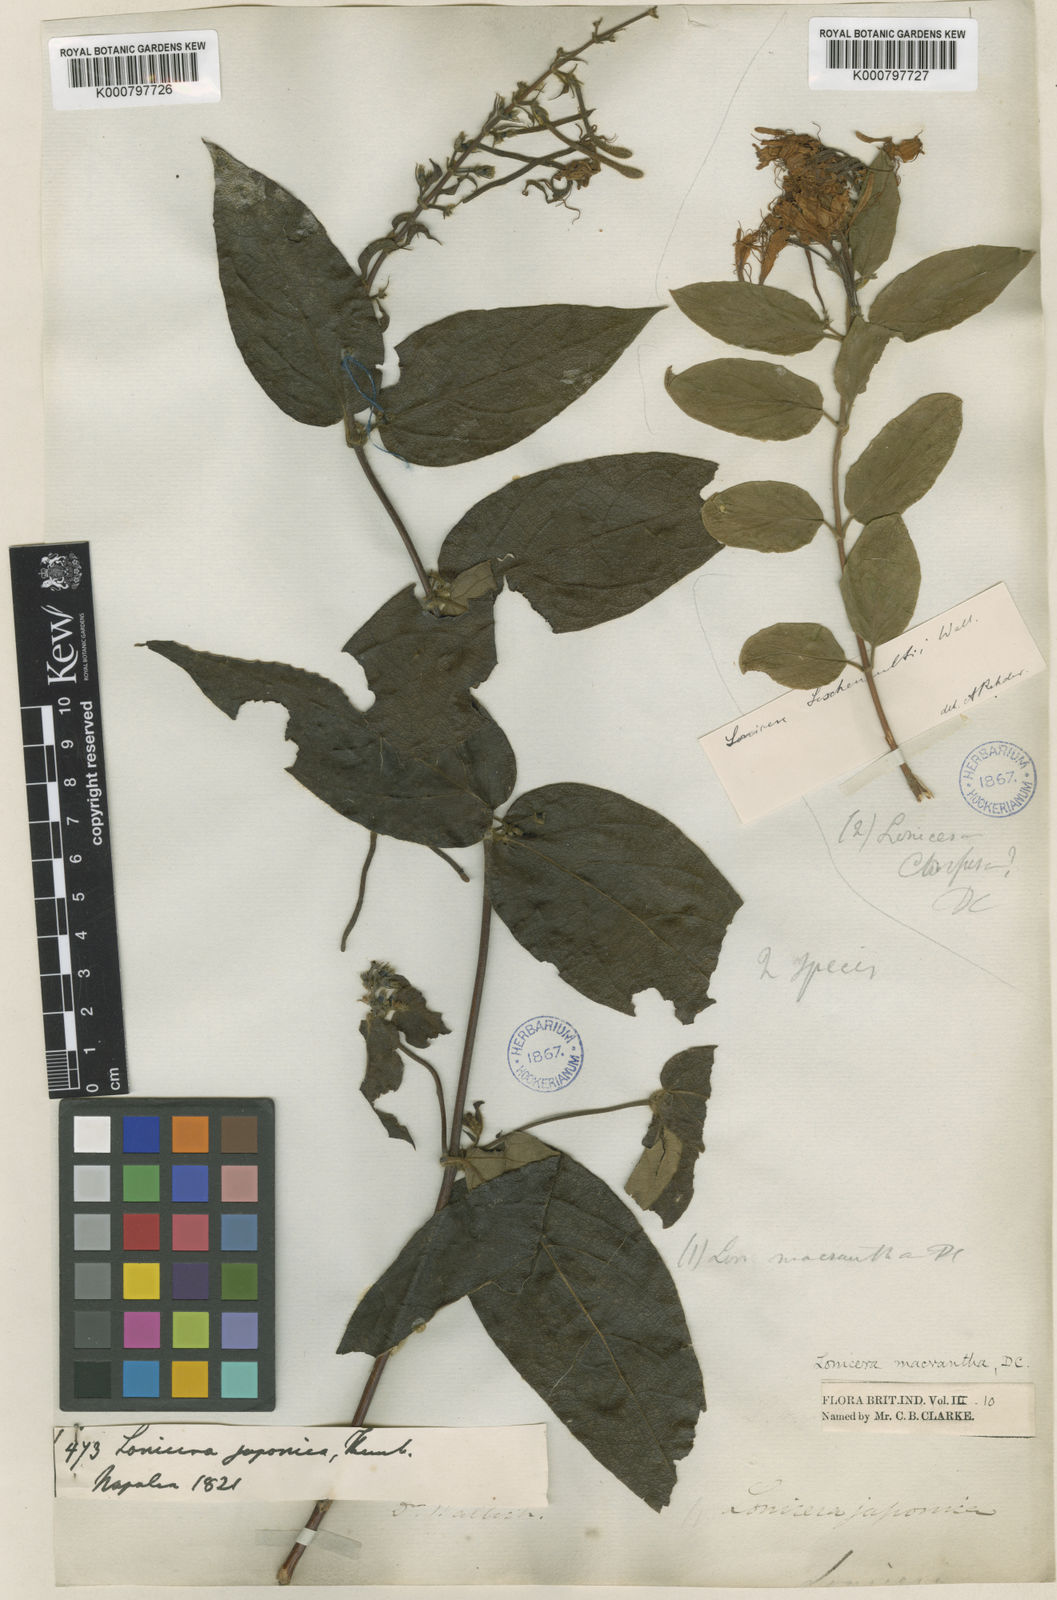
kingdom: Plantae
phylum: Tracheophyta
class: Magnoliopsida
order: Dipsacales
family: Caprifoliaceae
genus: Lonicera
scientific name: Lonicera macrantha
